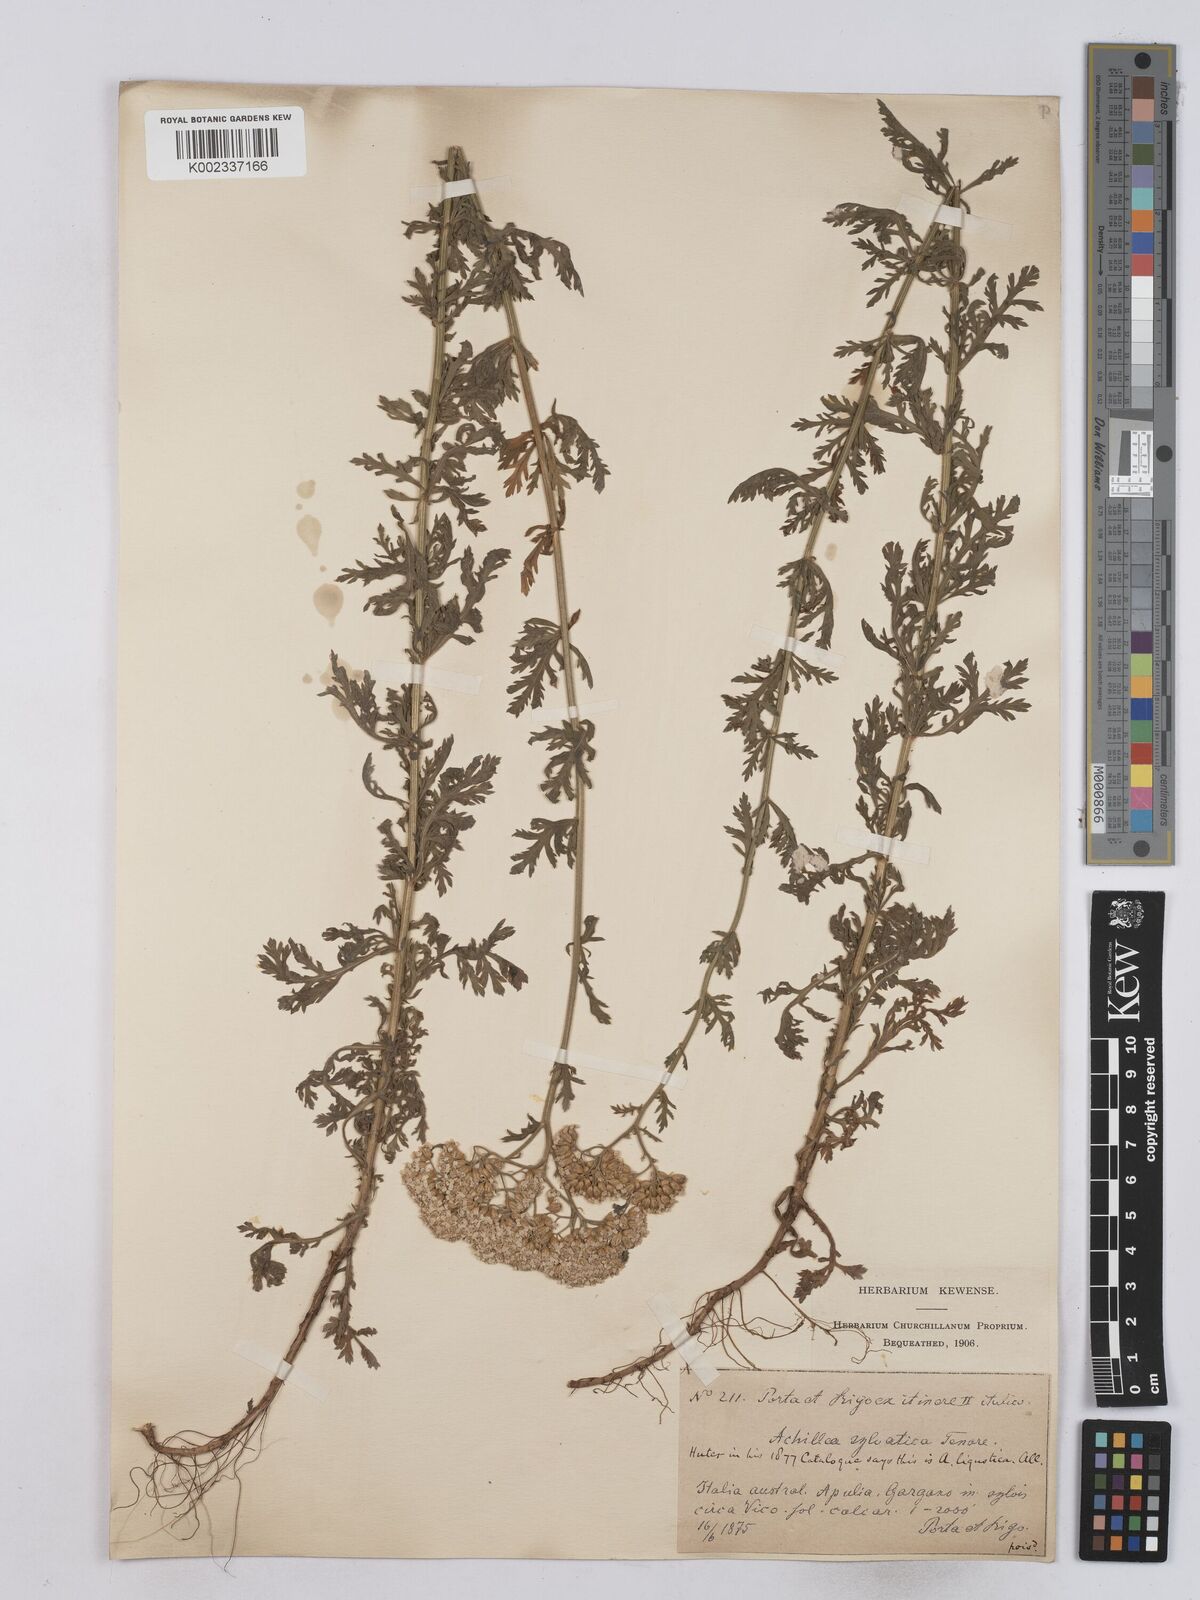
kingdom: Plantae
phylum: Tracheophyta
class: Magnoliopsida
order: Asterales
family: Asteraceae
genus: Achillea
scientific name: Achillea ligustica
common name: Southern yarrow
